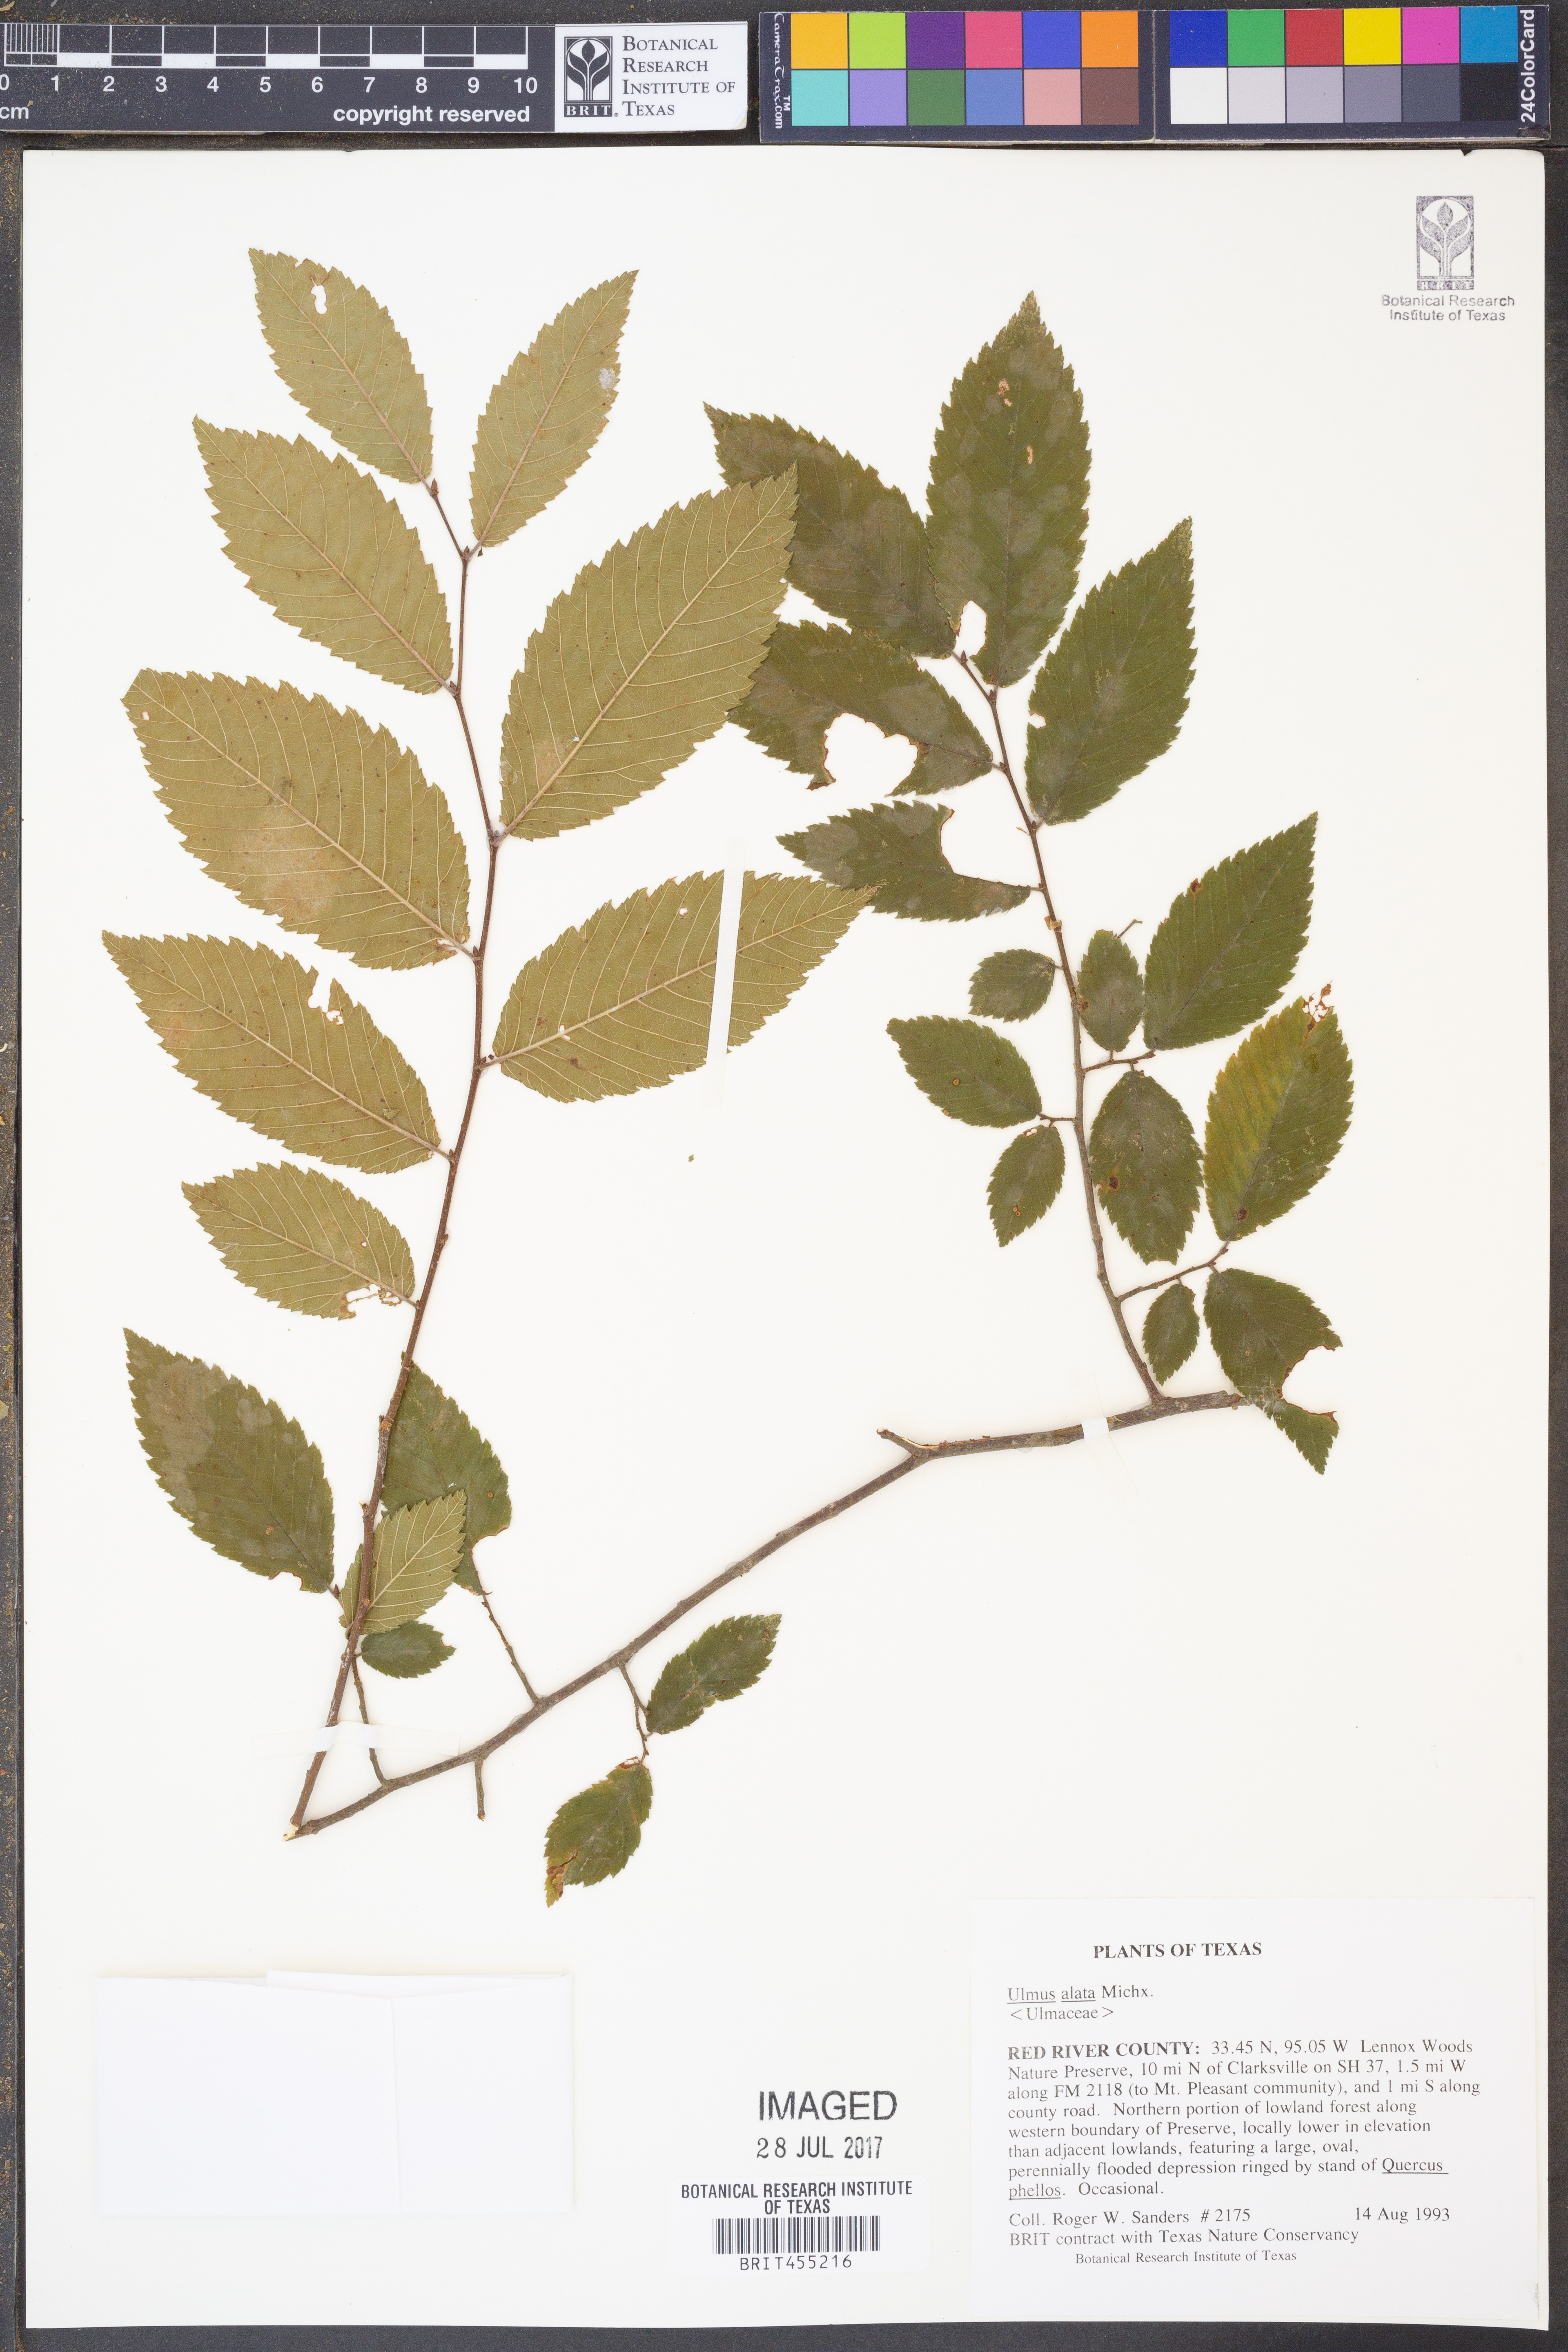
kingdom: Plantae
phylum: Tracheophyta
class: Magnoliopsida
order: Rosales
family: Ulmaceae
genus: Ulmus
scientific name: Ulmus alata
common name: Winged elm
